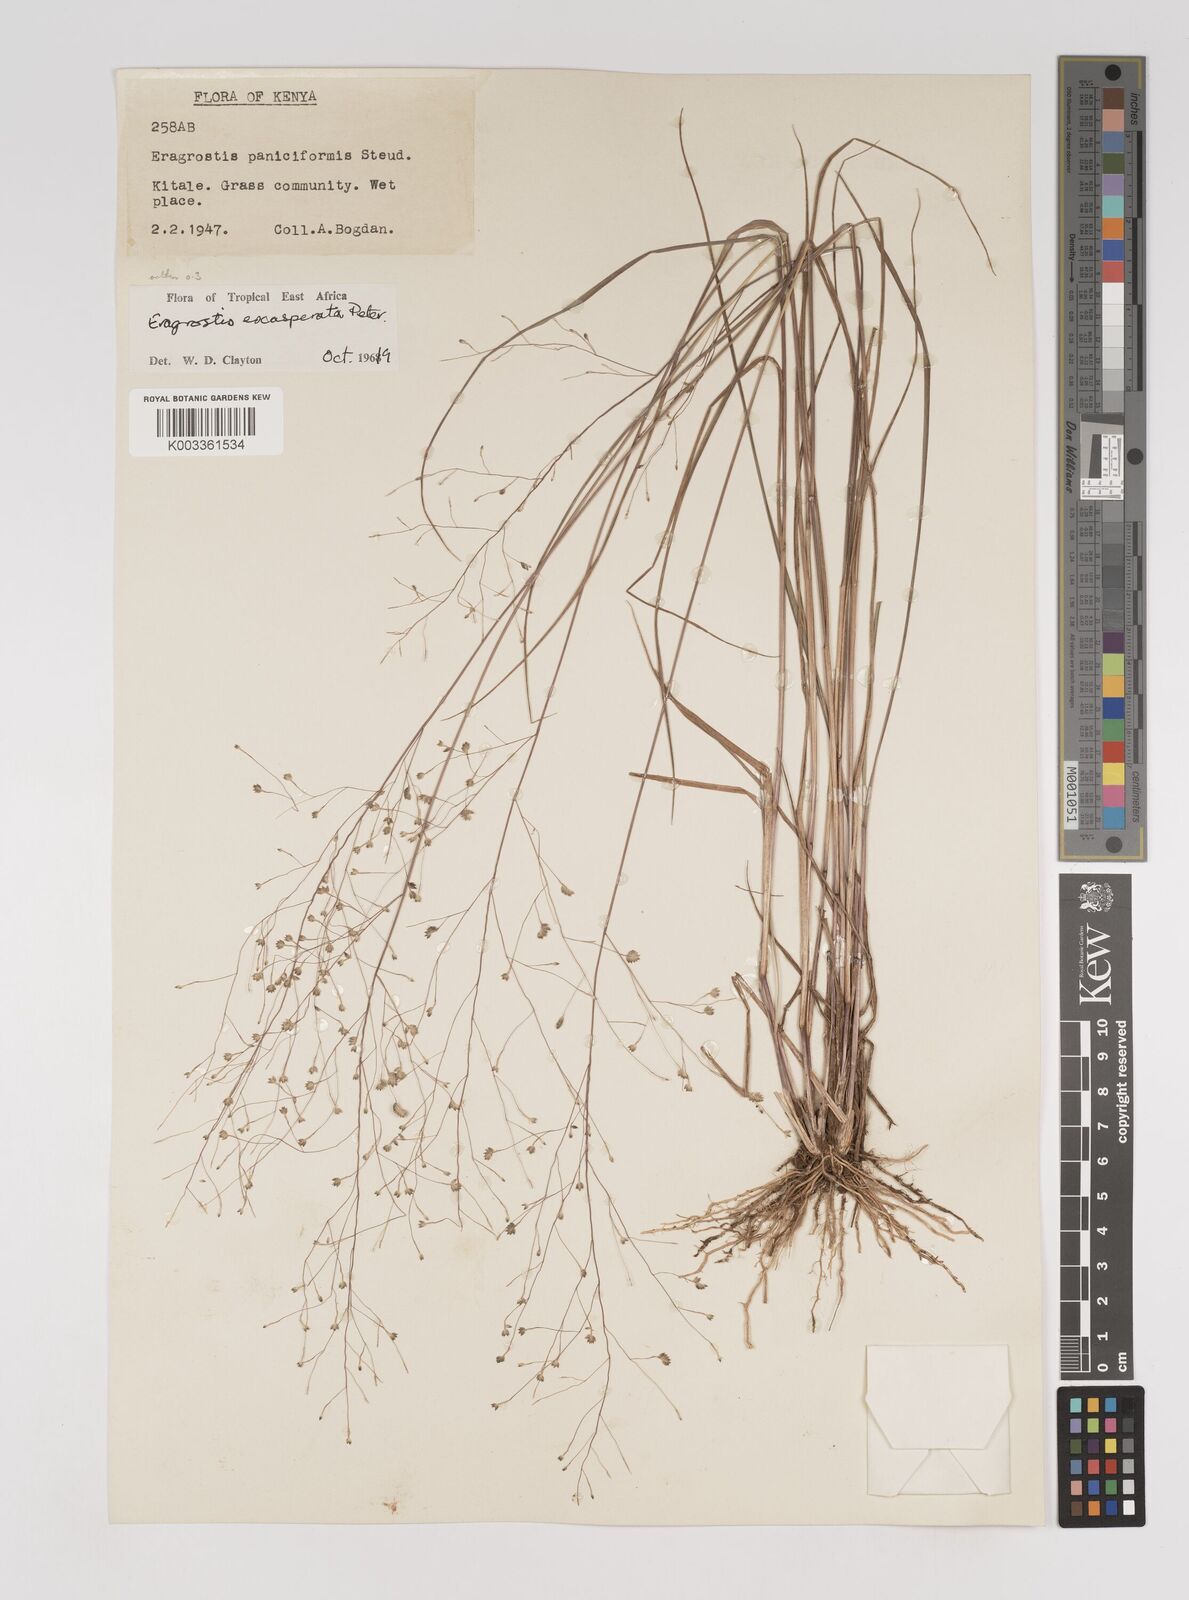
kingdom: Plantae
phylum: Tracheophyta
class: Liliopsida
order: Poales
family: Poaceae
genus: Eragrostis
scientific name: Eragrostis exasperata
